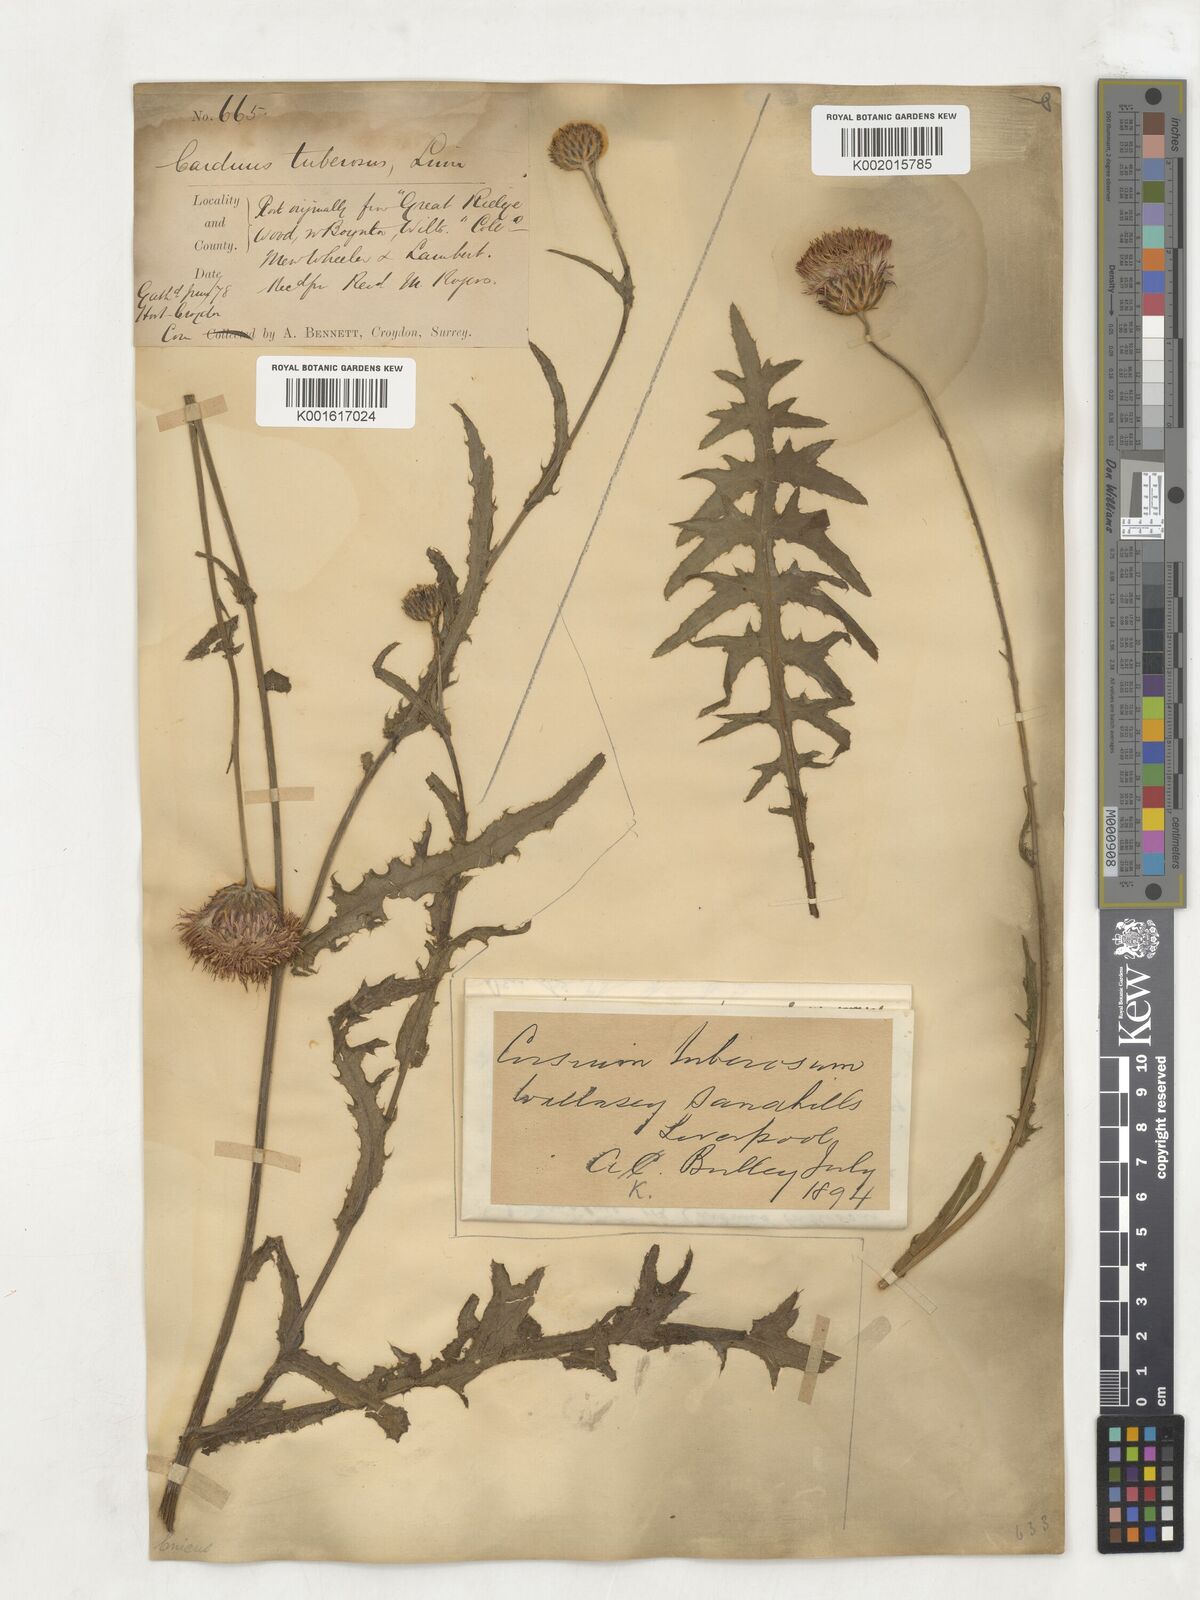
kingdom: Plantae
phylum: Tracheophyta
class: Magnoliopsida
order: Asterales
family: Asteraceae
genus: Cirsium
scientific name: Cirsium tuberosum
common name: Tuberous thistle
